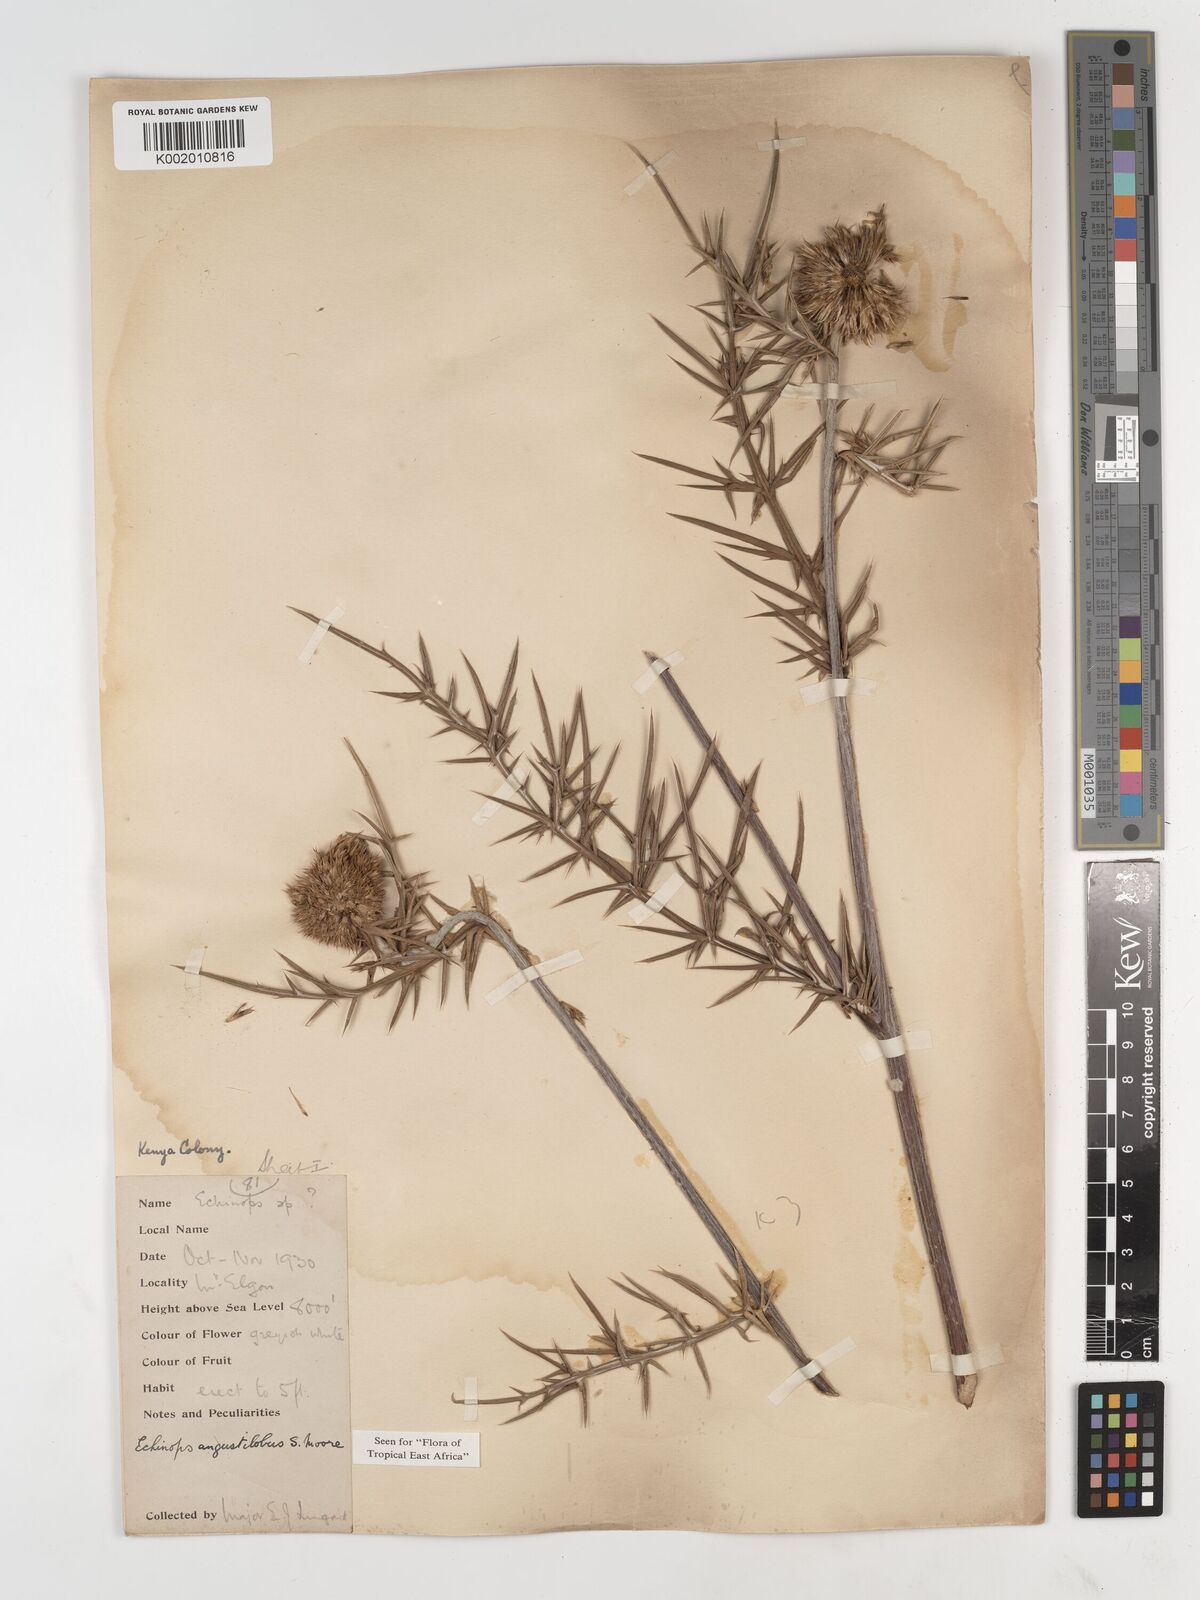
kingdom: Plantae
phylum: Tracheophyta
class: Magnoliopsida
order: Asterales
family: Asteraceae
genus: Echinops
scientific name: Echinops angustilobus
